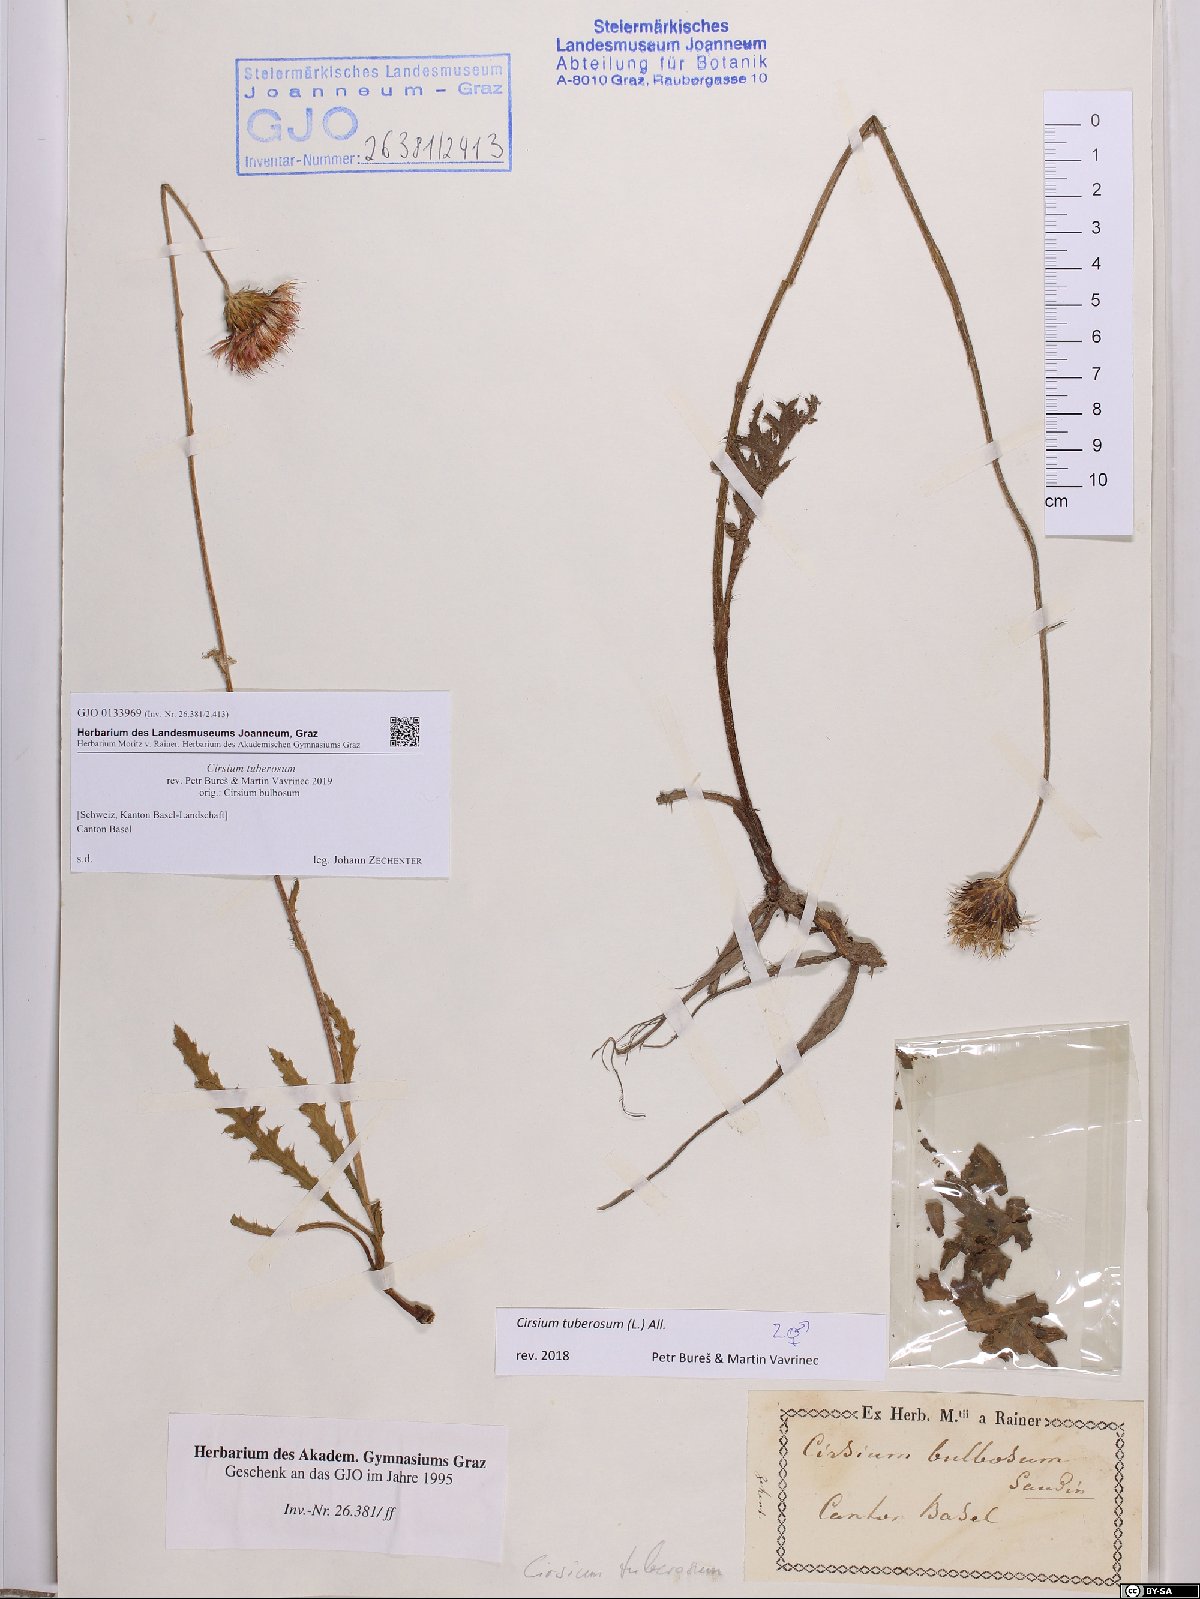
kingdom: Plantae
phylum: Tracheophyta
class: Magnoliopsida
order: Asterales
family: Asteraceae
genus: Cirsium
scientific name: Cirsium tuberosum
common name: Tuberous thistle
